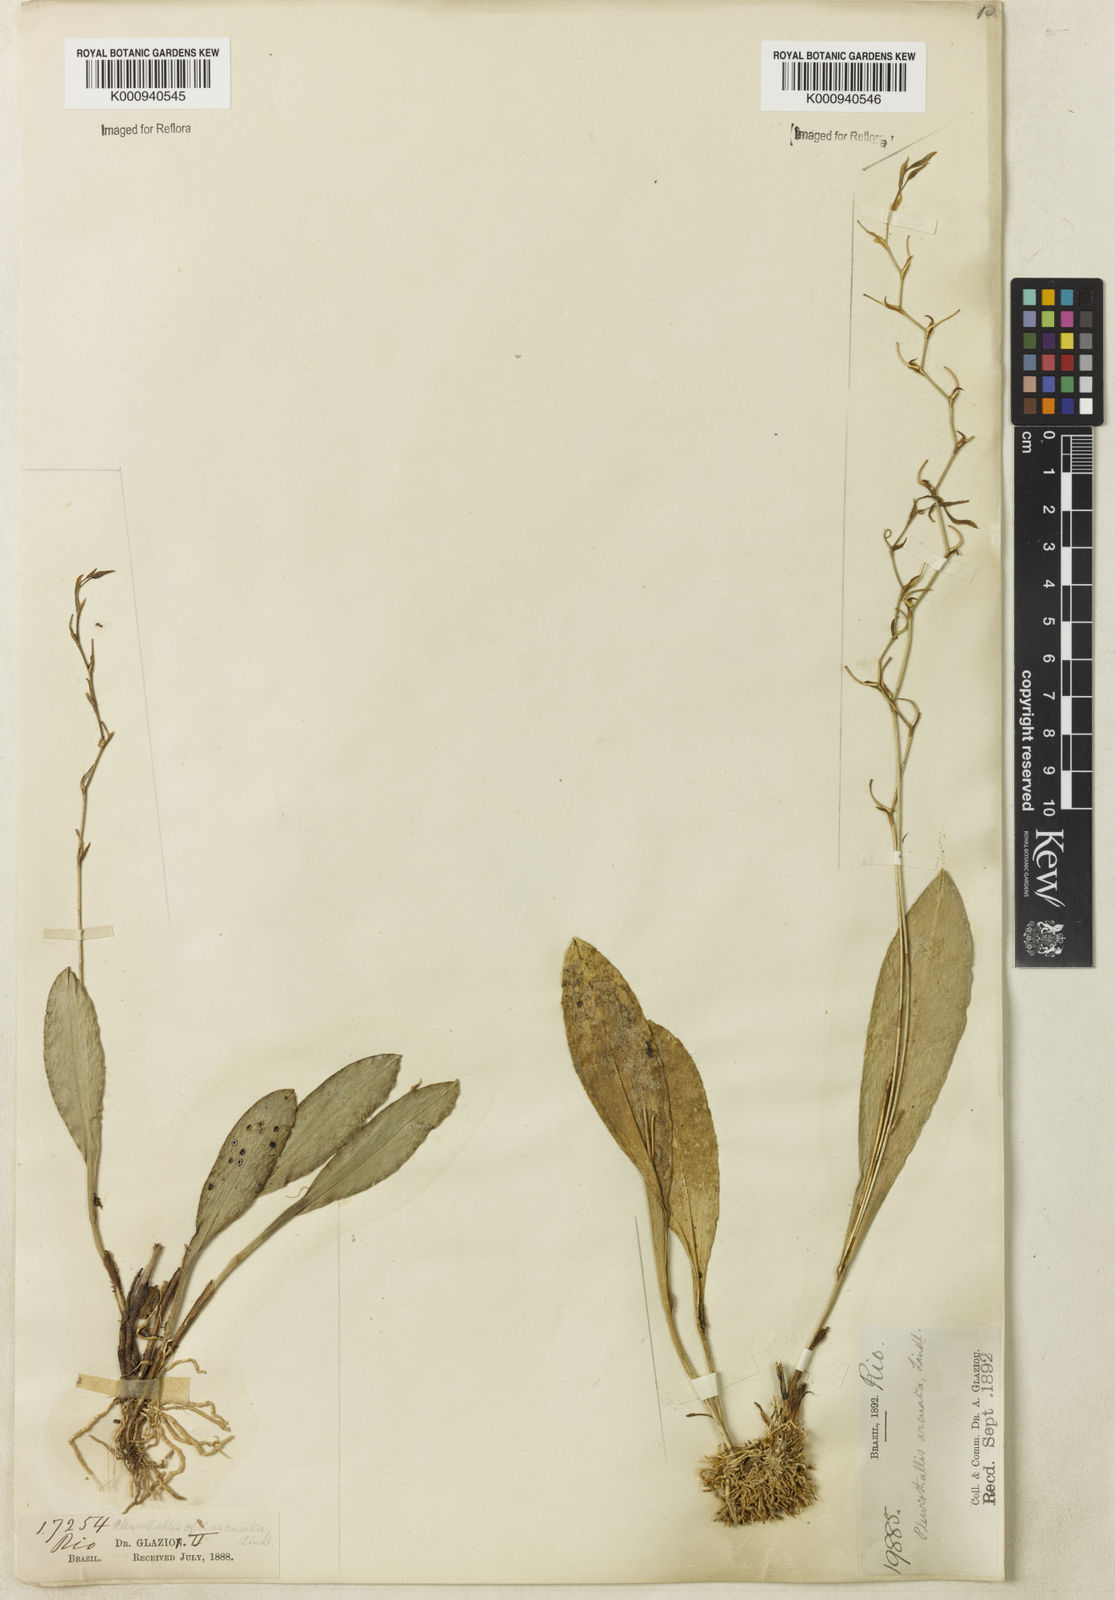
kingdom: Plantae
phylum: Tracheophyta
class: Liliopsida
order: Asparagales
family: Orchidaceae
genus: Stelis
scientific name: Stelis
